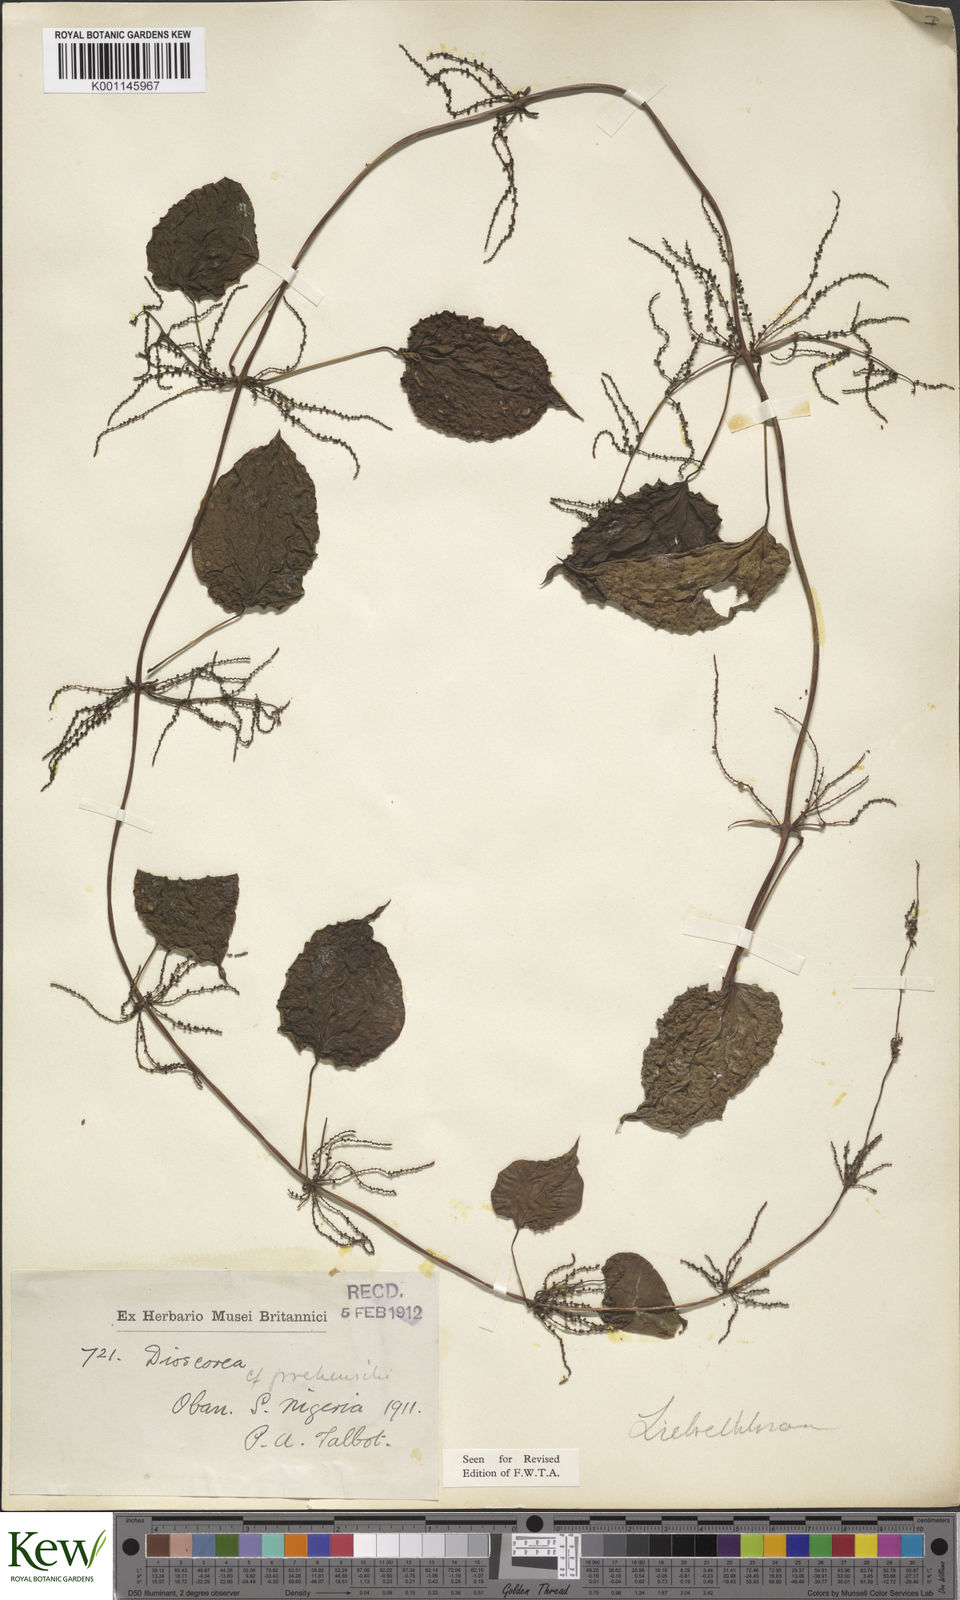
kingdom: Plantae
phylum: Tracheophyta
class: Liliopsida
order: Dioscoreales
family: Dioscoreaceae
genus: Dioscorea
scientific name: Dioscorea praehensilis
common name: Bush yam
